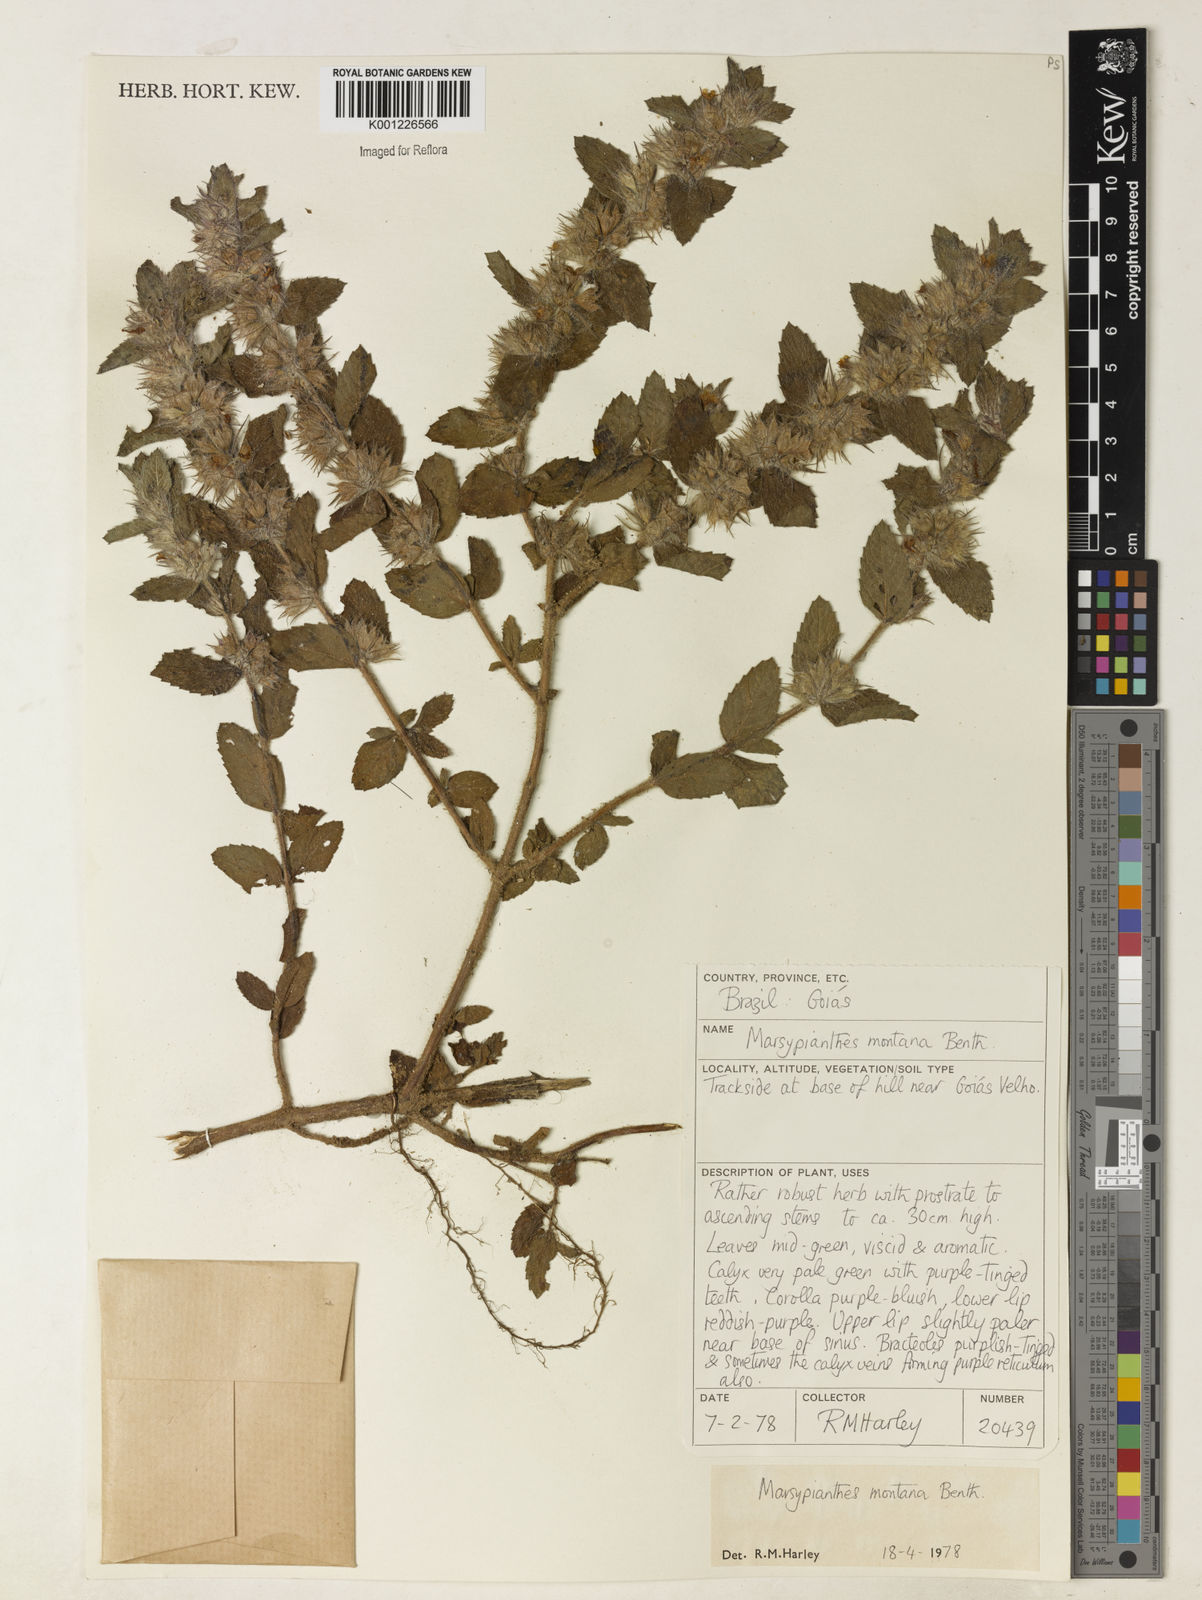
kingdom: Plantae
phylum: Tracheophyta
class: Magnoliopsida
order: Lamiales
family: Lamiaceae
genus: Marsypianthes
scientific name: Marsypianthes burchellii
